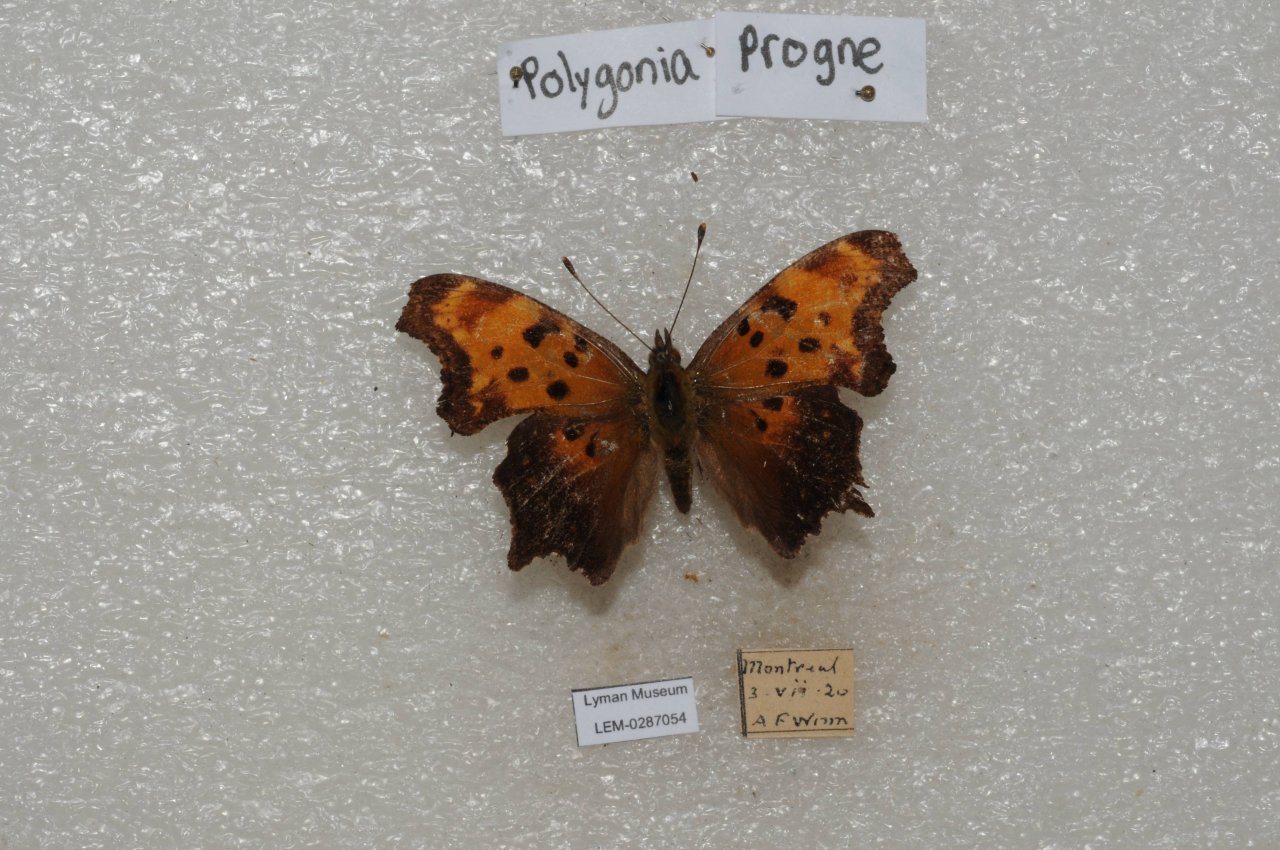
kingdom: Animalia
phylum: Arthropoda
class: Insecta
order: Lepidoptera
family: Nymphalidae
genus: Polygonia
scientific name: Polygonia progne
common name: Gray Comma
